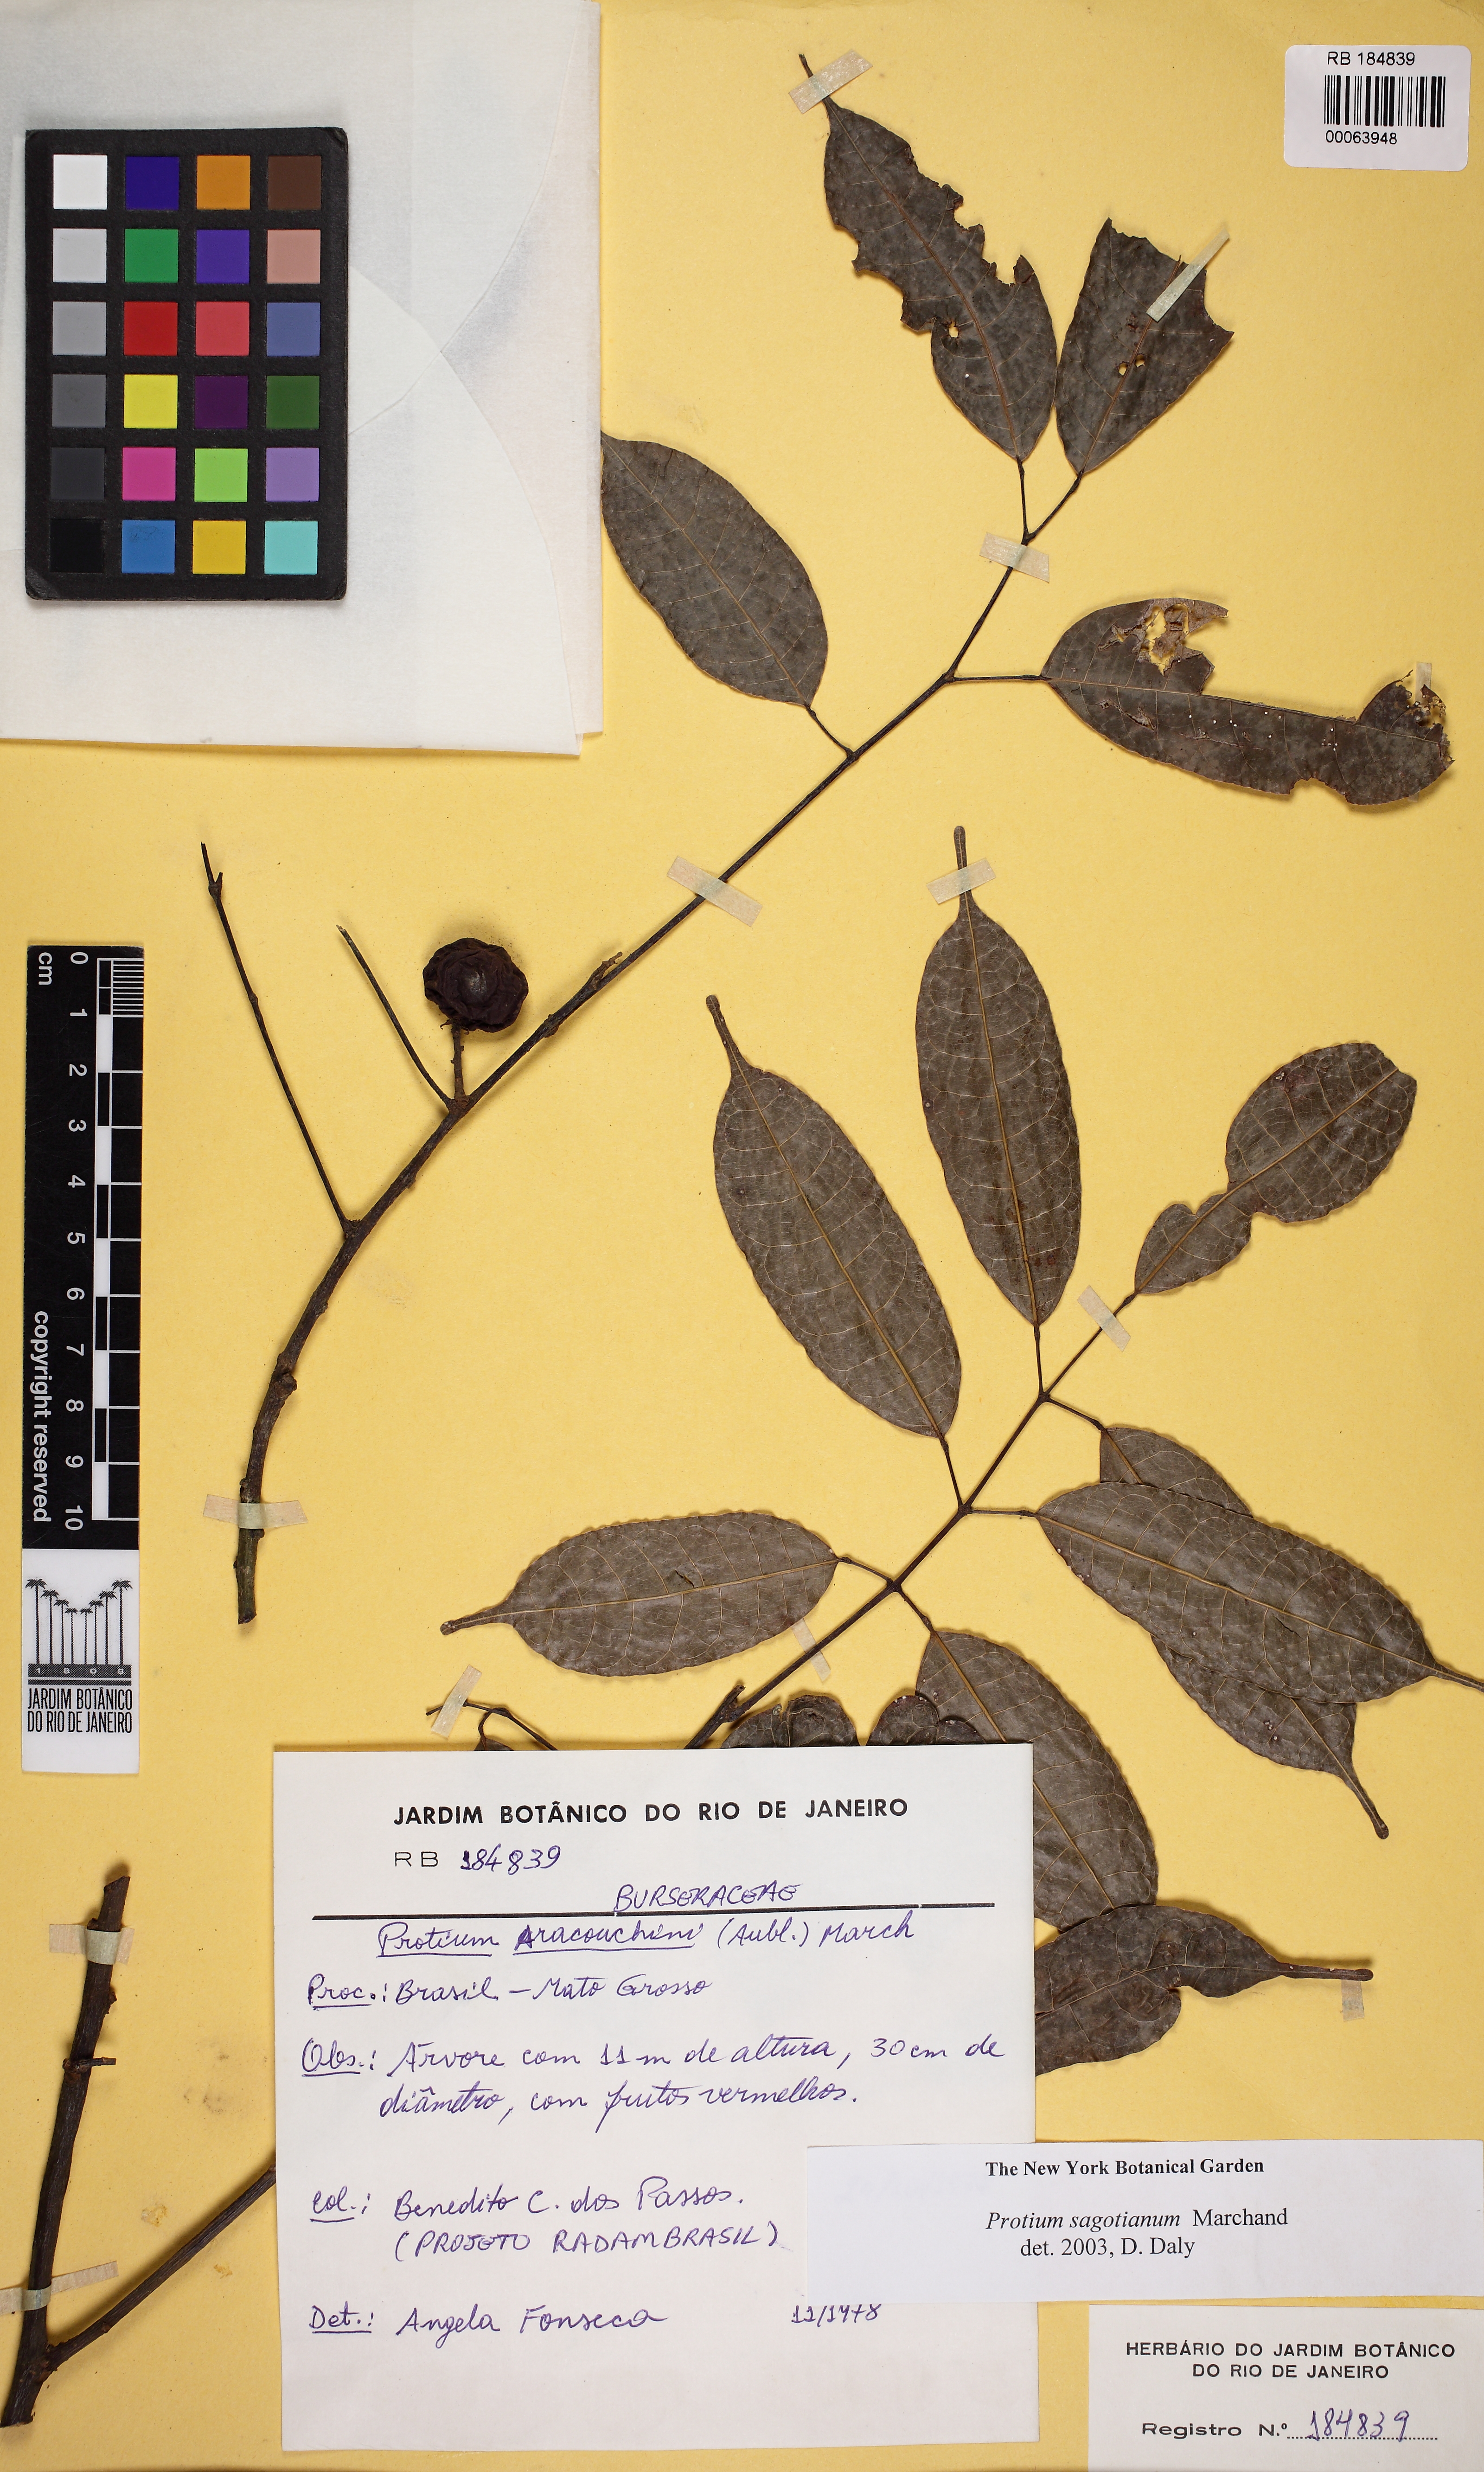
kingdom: Plantae
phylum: Tracheophyta
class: Magnoliopsida
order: Sapindales
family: Burseraceae
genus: Protium
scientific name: Protium sagotianum
